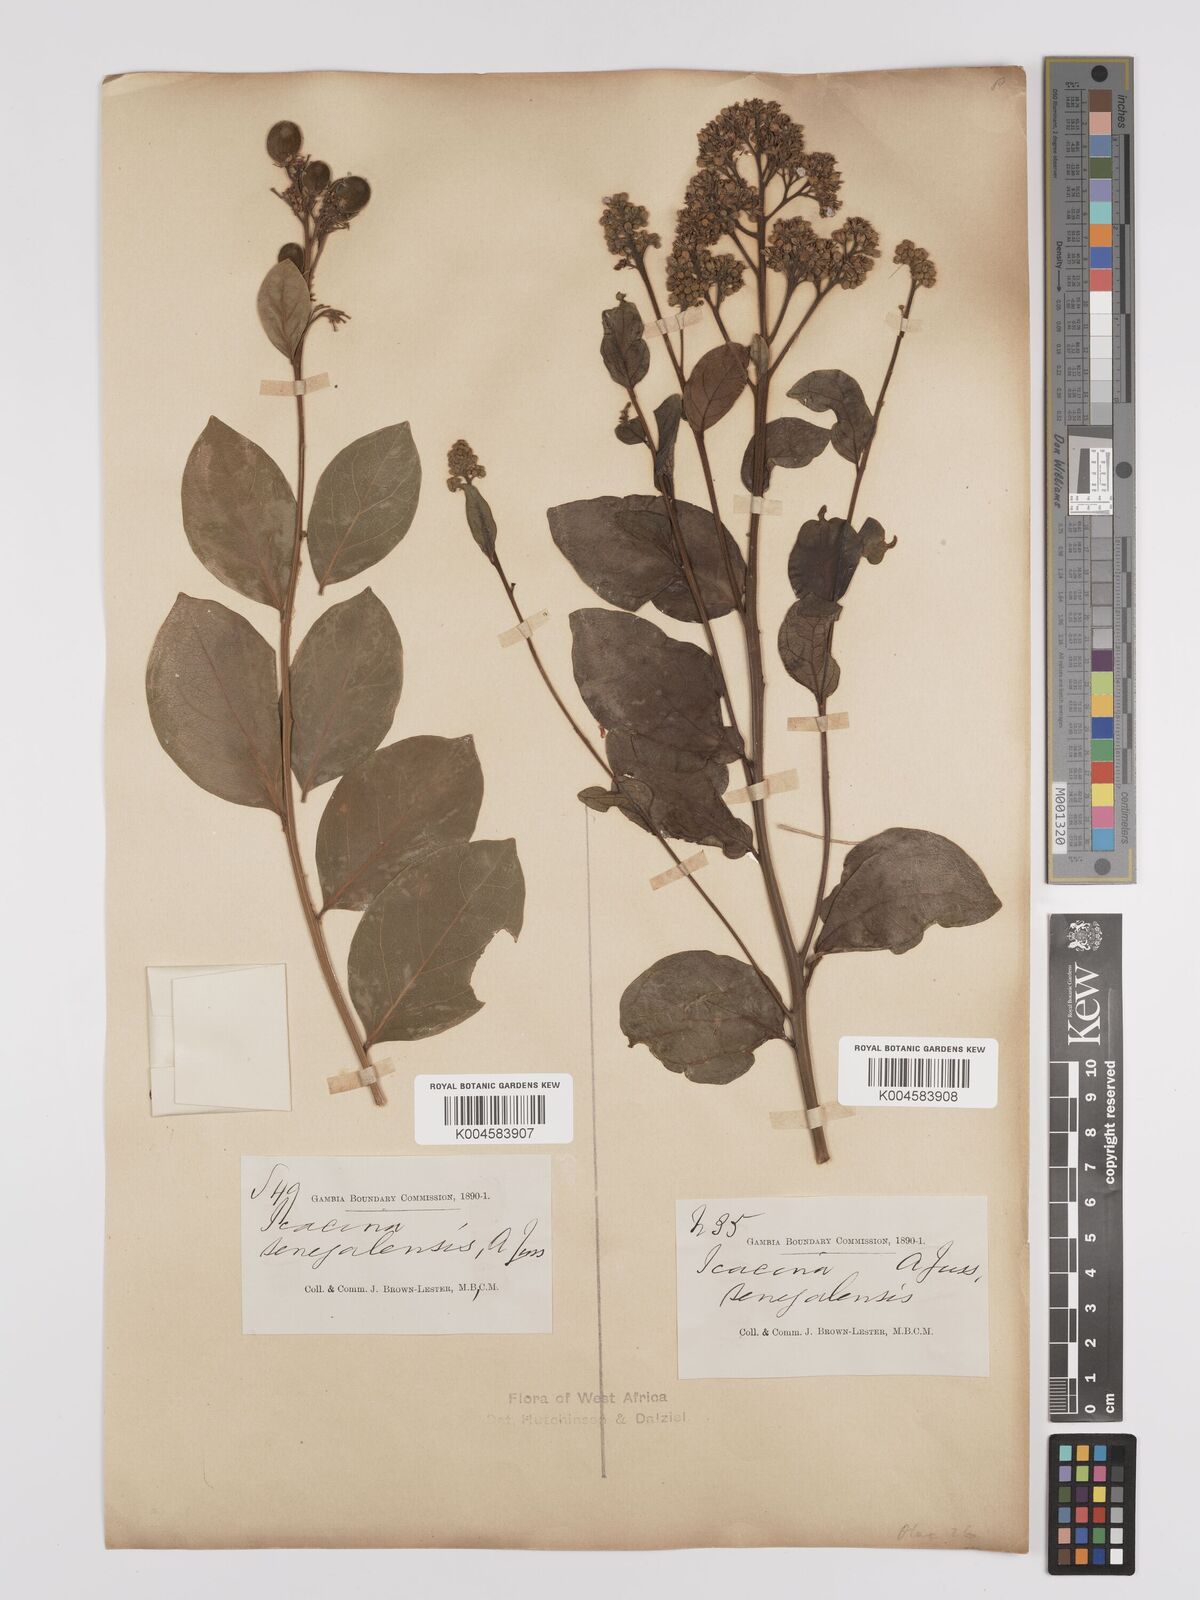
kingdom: Plantae
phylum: Tracheophyta
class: Magnoliopsida
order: Icacinales
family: Icacinaceae
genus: Icacina
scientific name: Icacina oliviformis
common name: False yam
